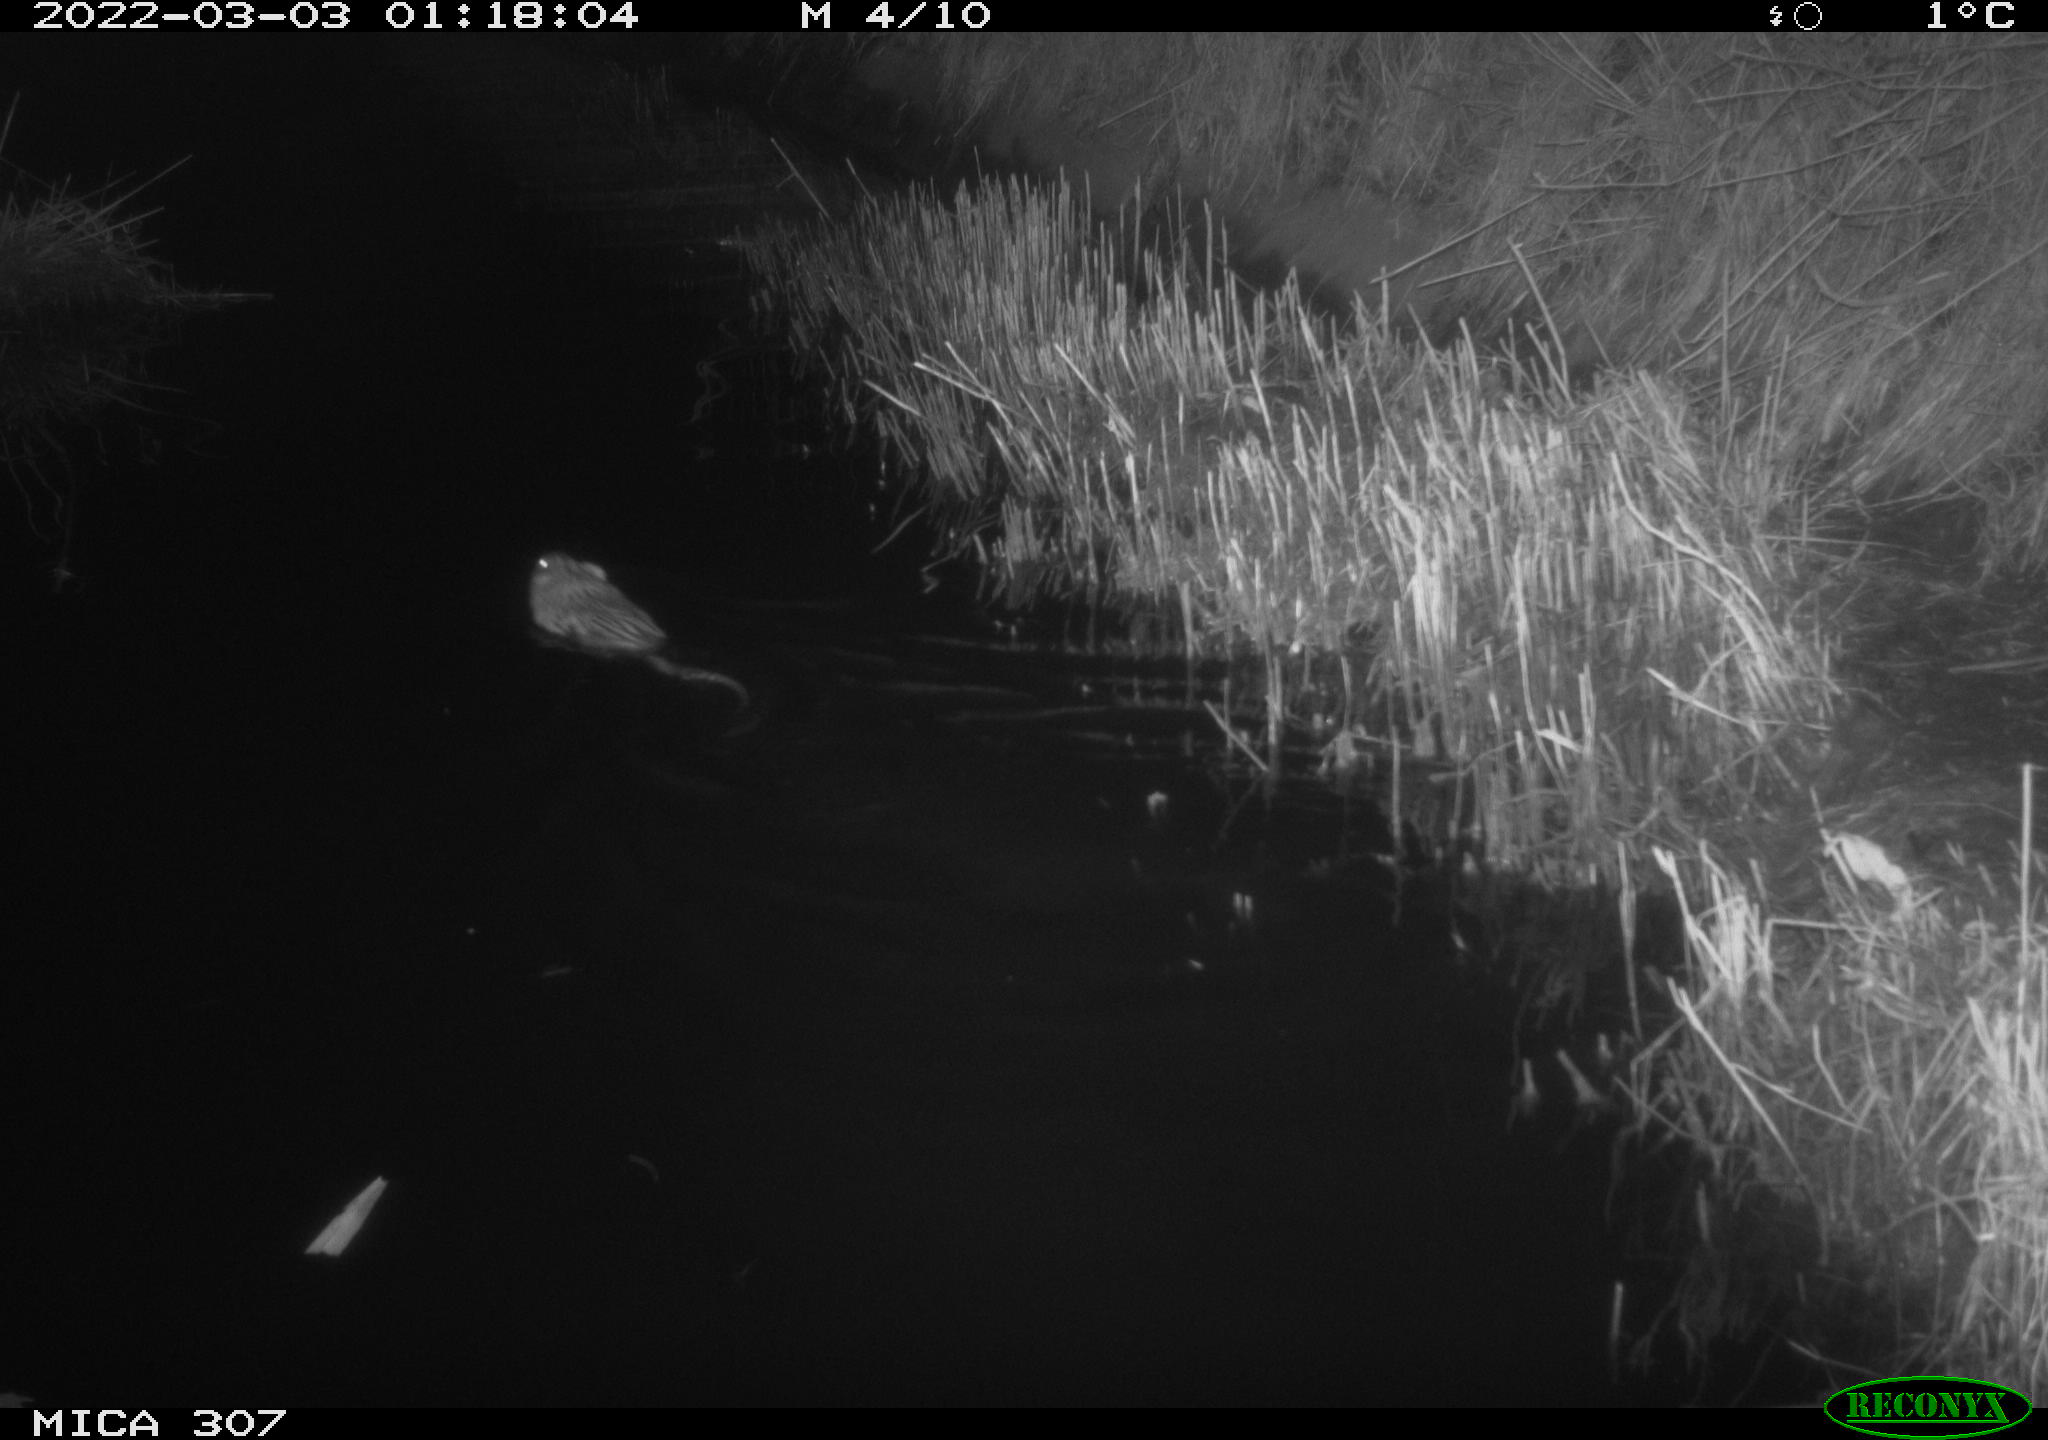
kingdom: Animalia
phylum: Chordata
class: Mammalia
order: Rodentia
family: Cricetidae
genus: Ondatra
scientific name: Ondatra zibethicus
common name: Muskrat
